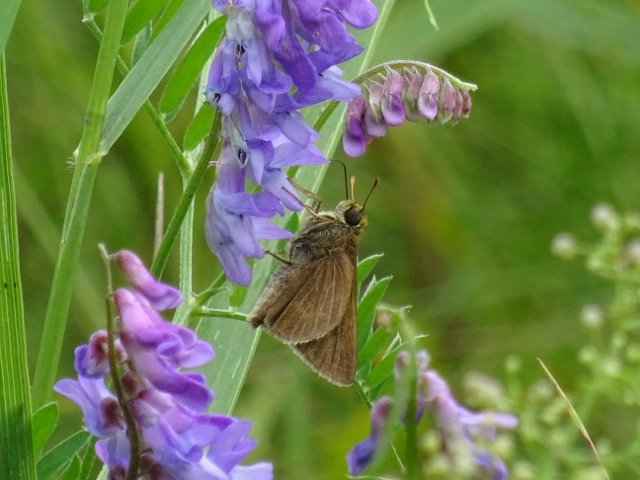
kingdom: Animalia
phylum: Arthropoda
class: Insecta
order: Lepidoptera
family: Hesperiidae
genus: Euphyes
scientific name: Euphyes vestris
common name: Dun Skipper
